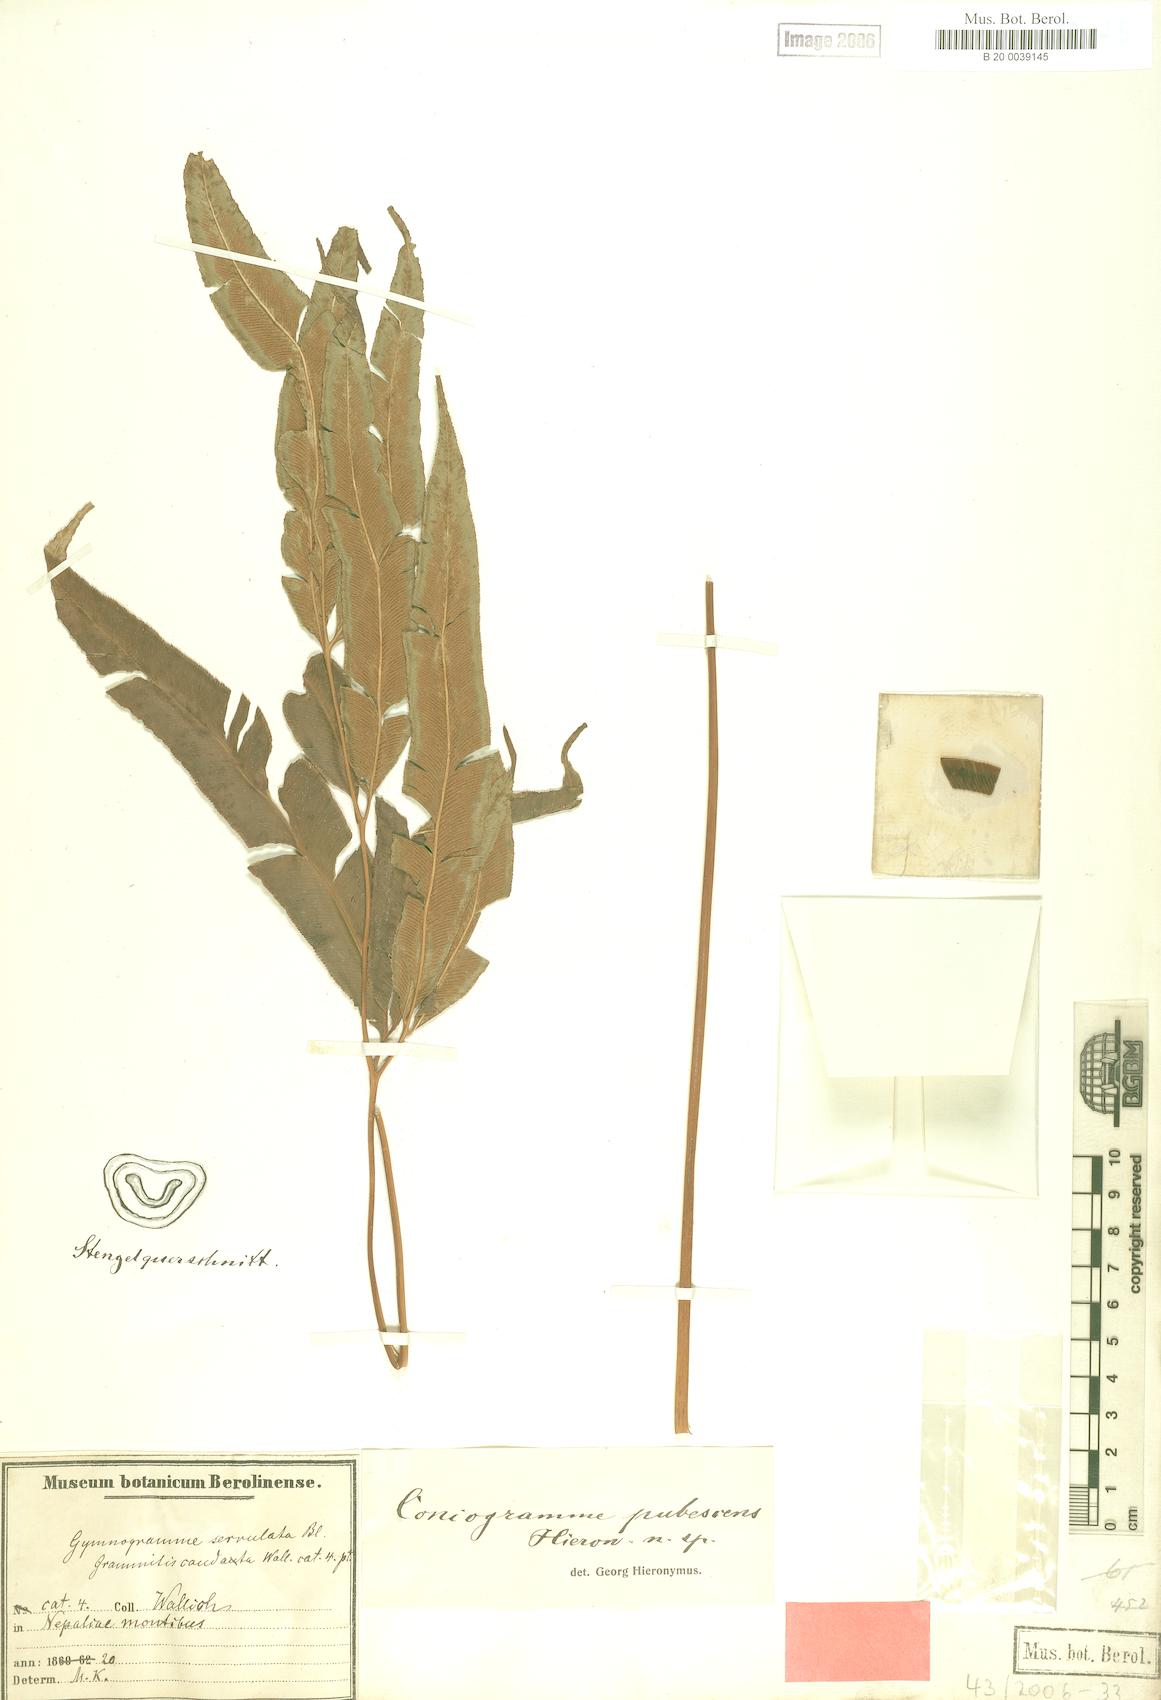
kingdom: Plantae
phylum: Tracheophyta
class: Polypodiopsida
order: Polypodiales
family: Pteridaceae
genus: Coniogramme
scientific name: Coniogramme pubescens
